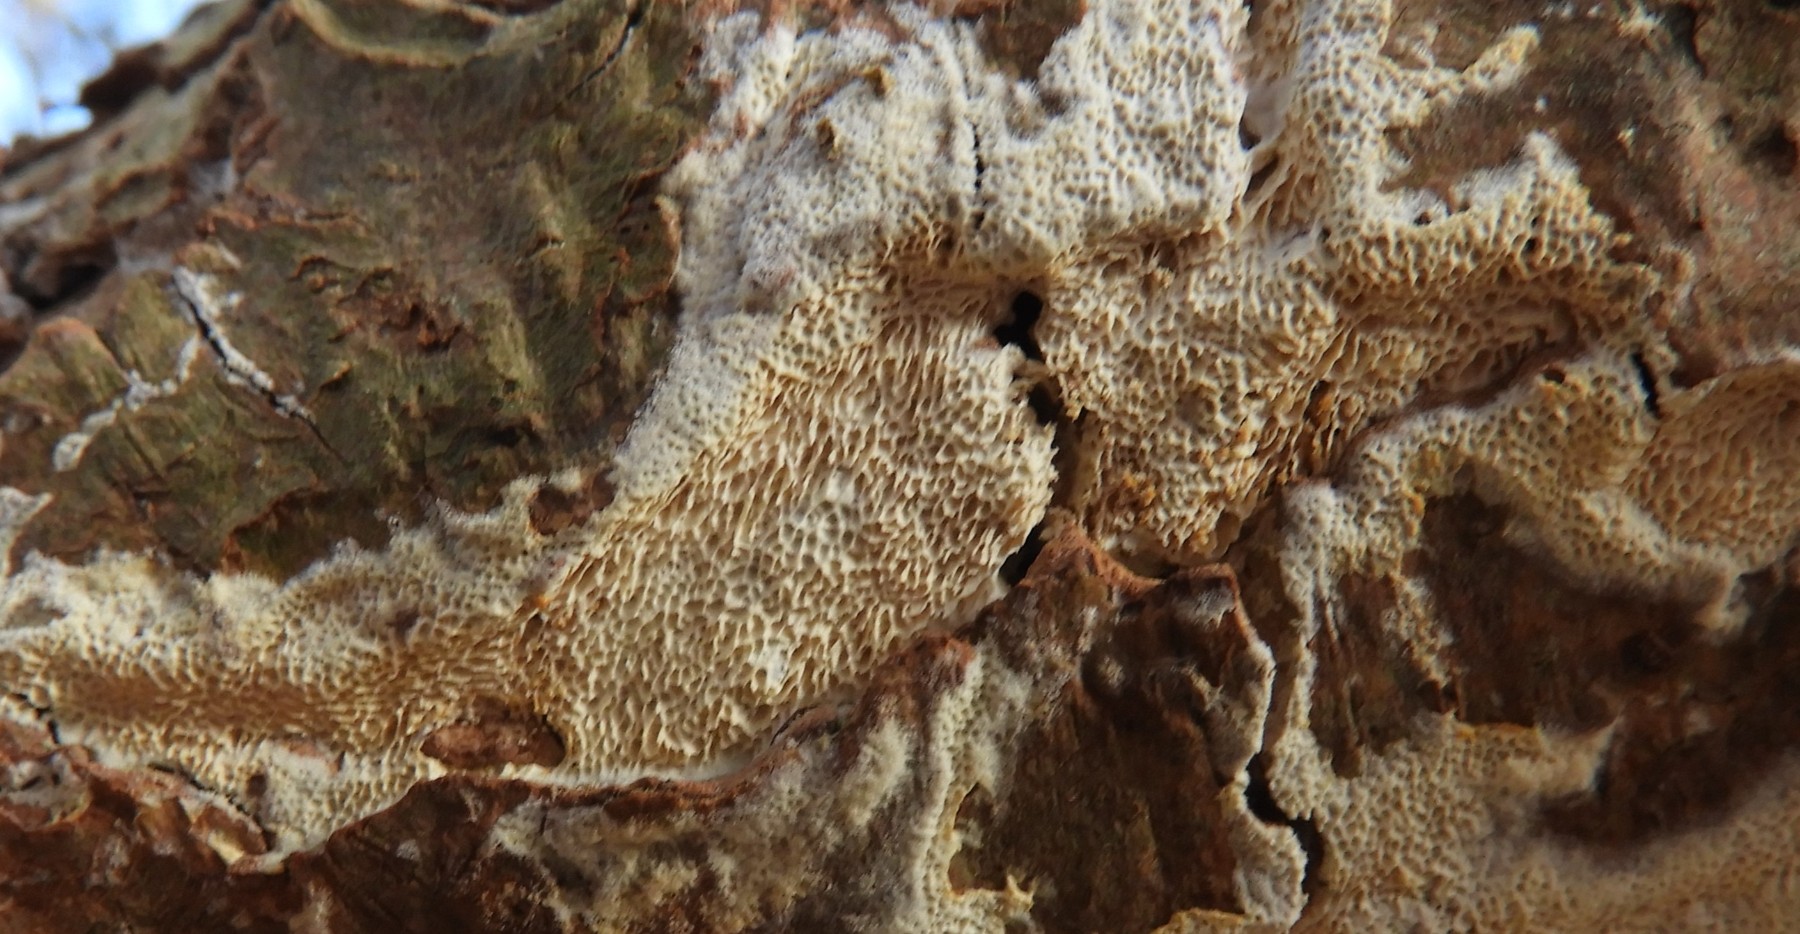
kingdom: Fungi
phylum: Basidiomycota
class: Agaricomycetes
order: Hymenochaetales
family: Schizoporaceae
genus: Xylodon
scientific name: Xylodon subtropicus
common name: labyrint-tandsvamp
